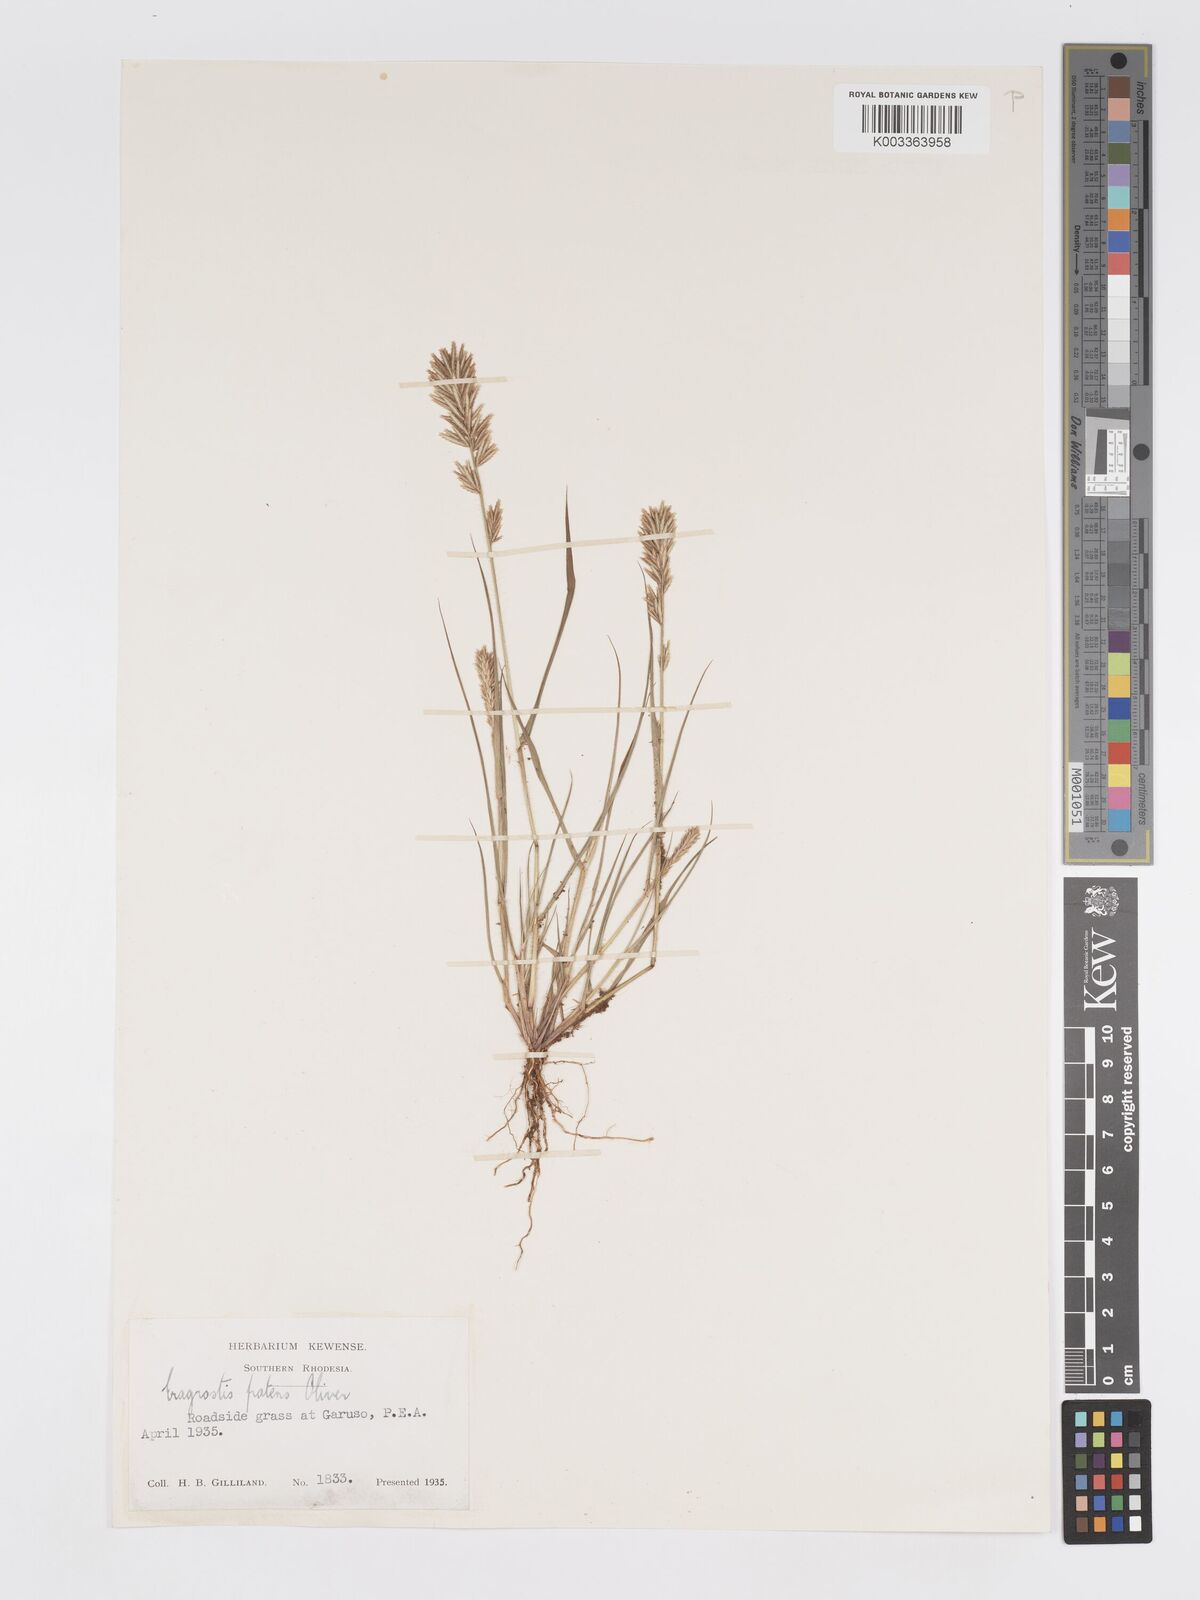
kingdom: Plantae
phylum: Tracheophyta
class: Liliopsida
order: Poales
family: Poaceae
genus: Eragrostis
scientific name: Eragrostis patens
